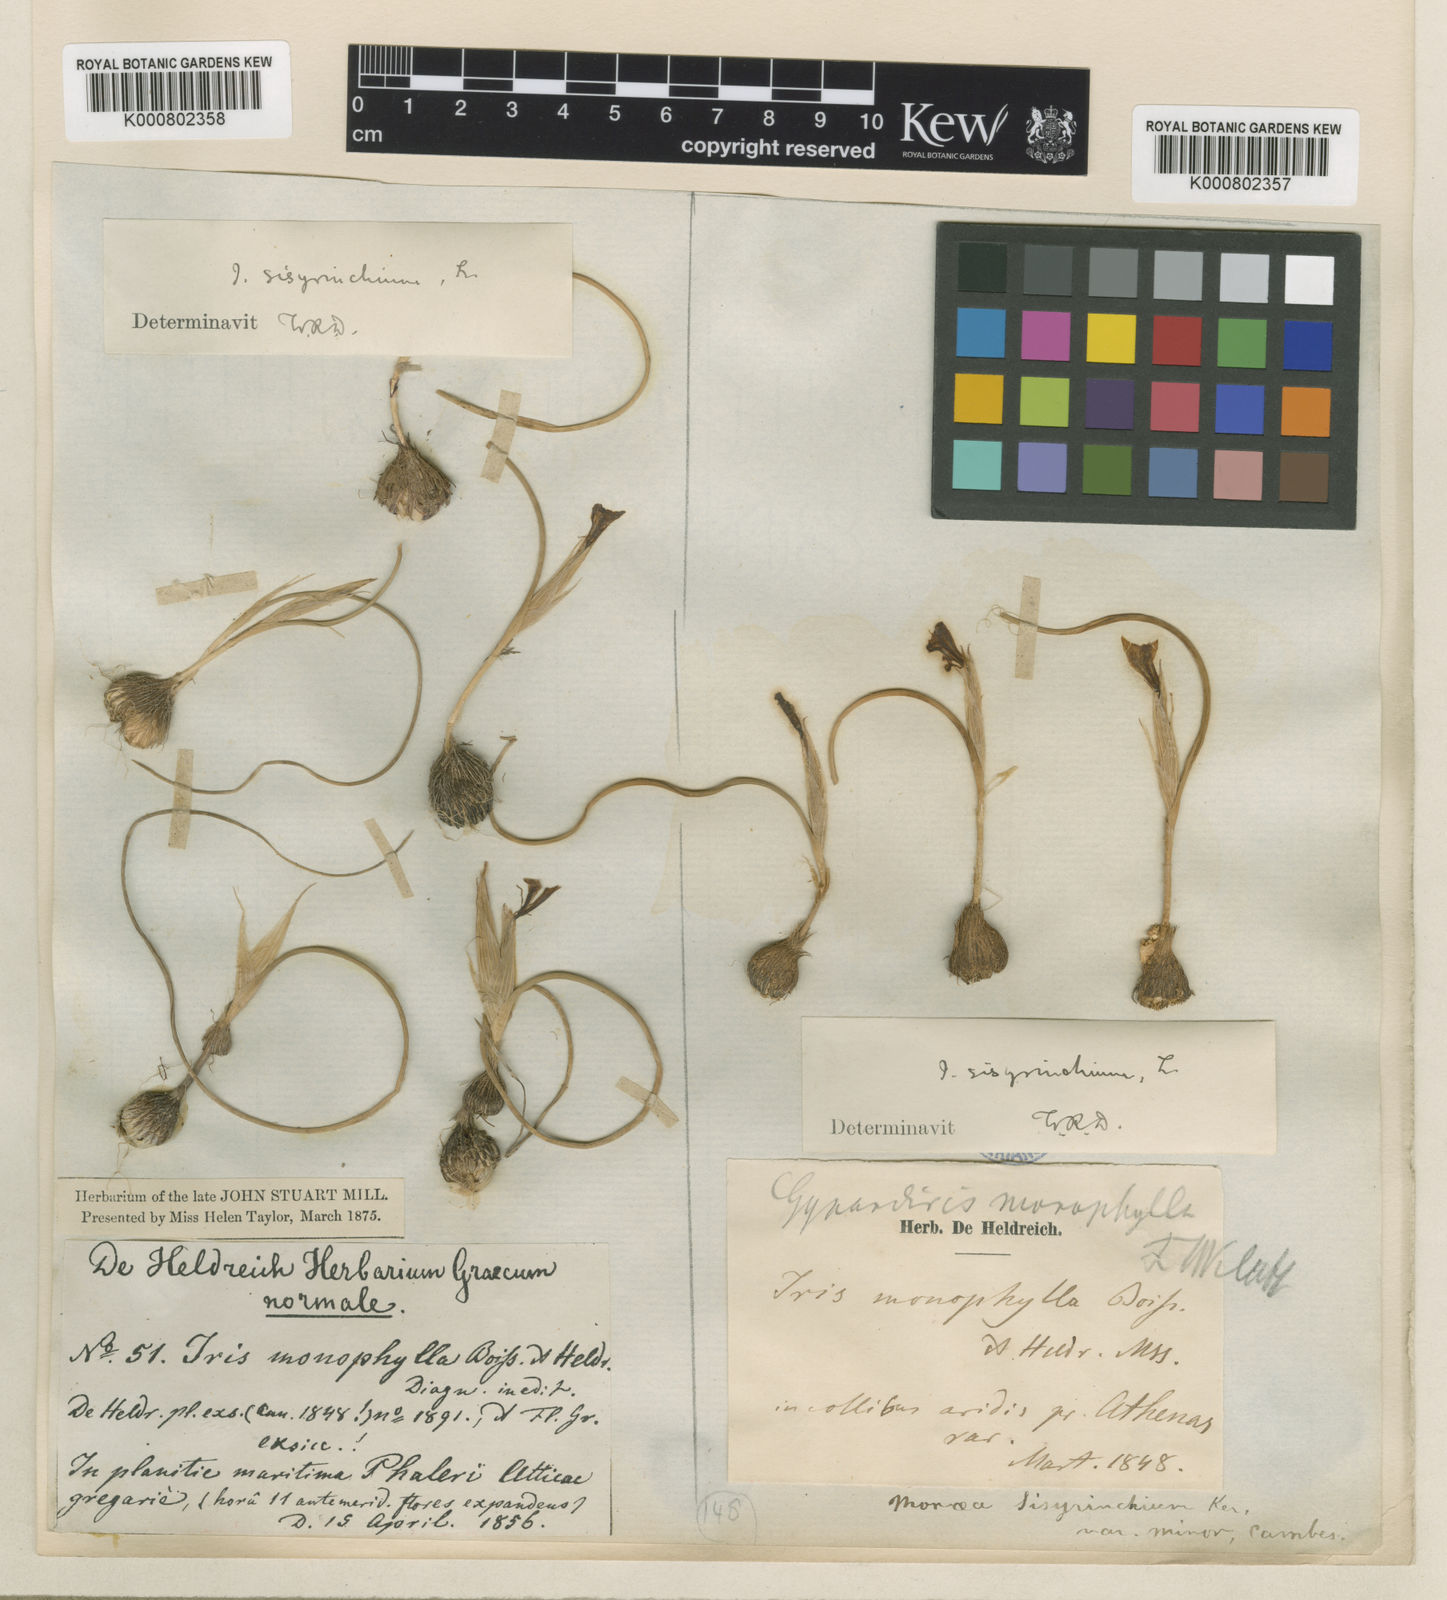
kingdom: Plantae
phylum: Tracheophyta
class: Liliopsida
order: Asparagales
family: Iridaceae
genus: Moraea
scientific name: Moraea sisyrinchium
